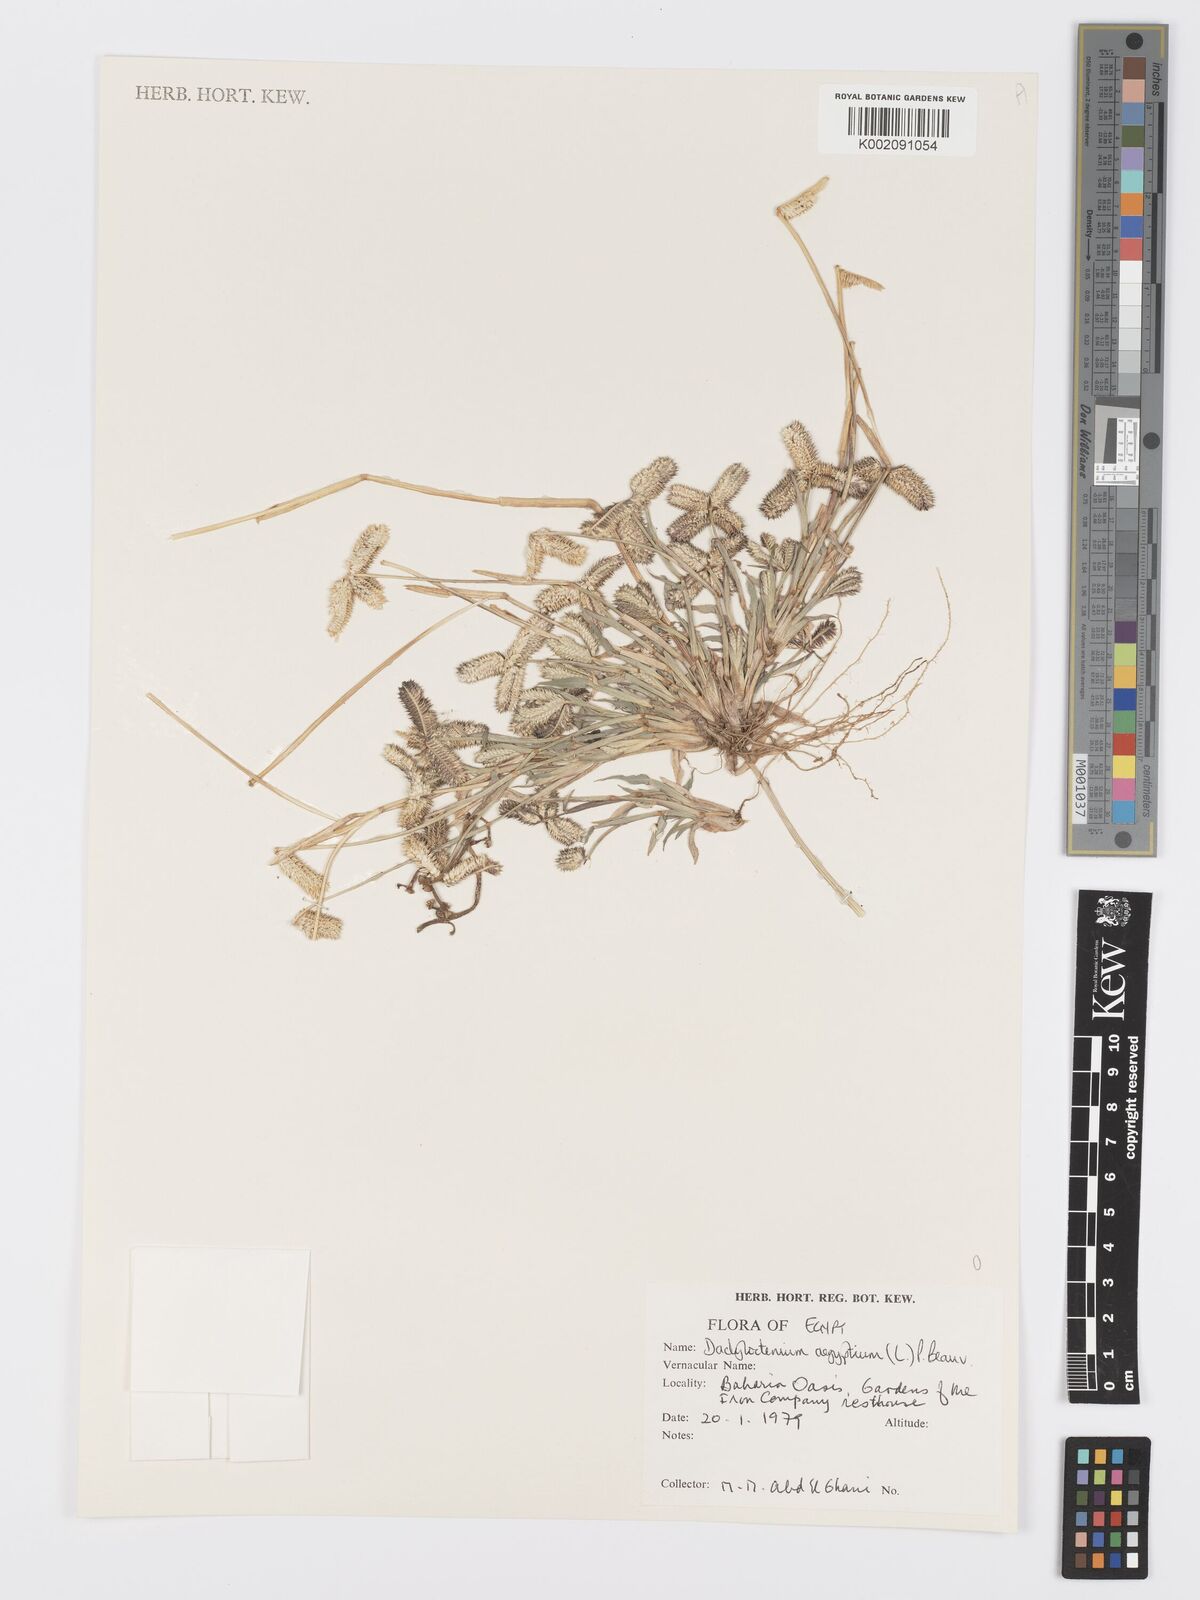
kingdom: Plantae
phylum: Tracheophyta
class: Liliopsida
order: Poales
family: Poaceae
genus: Dactyloctenium
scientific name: Dactyloctenium aegyptium
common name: Egyptian grass
